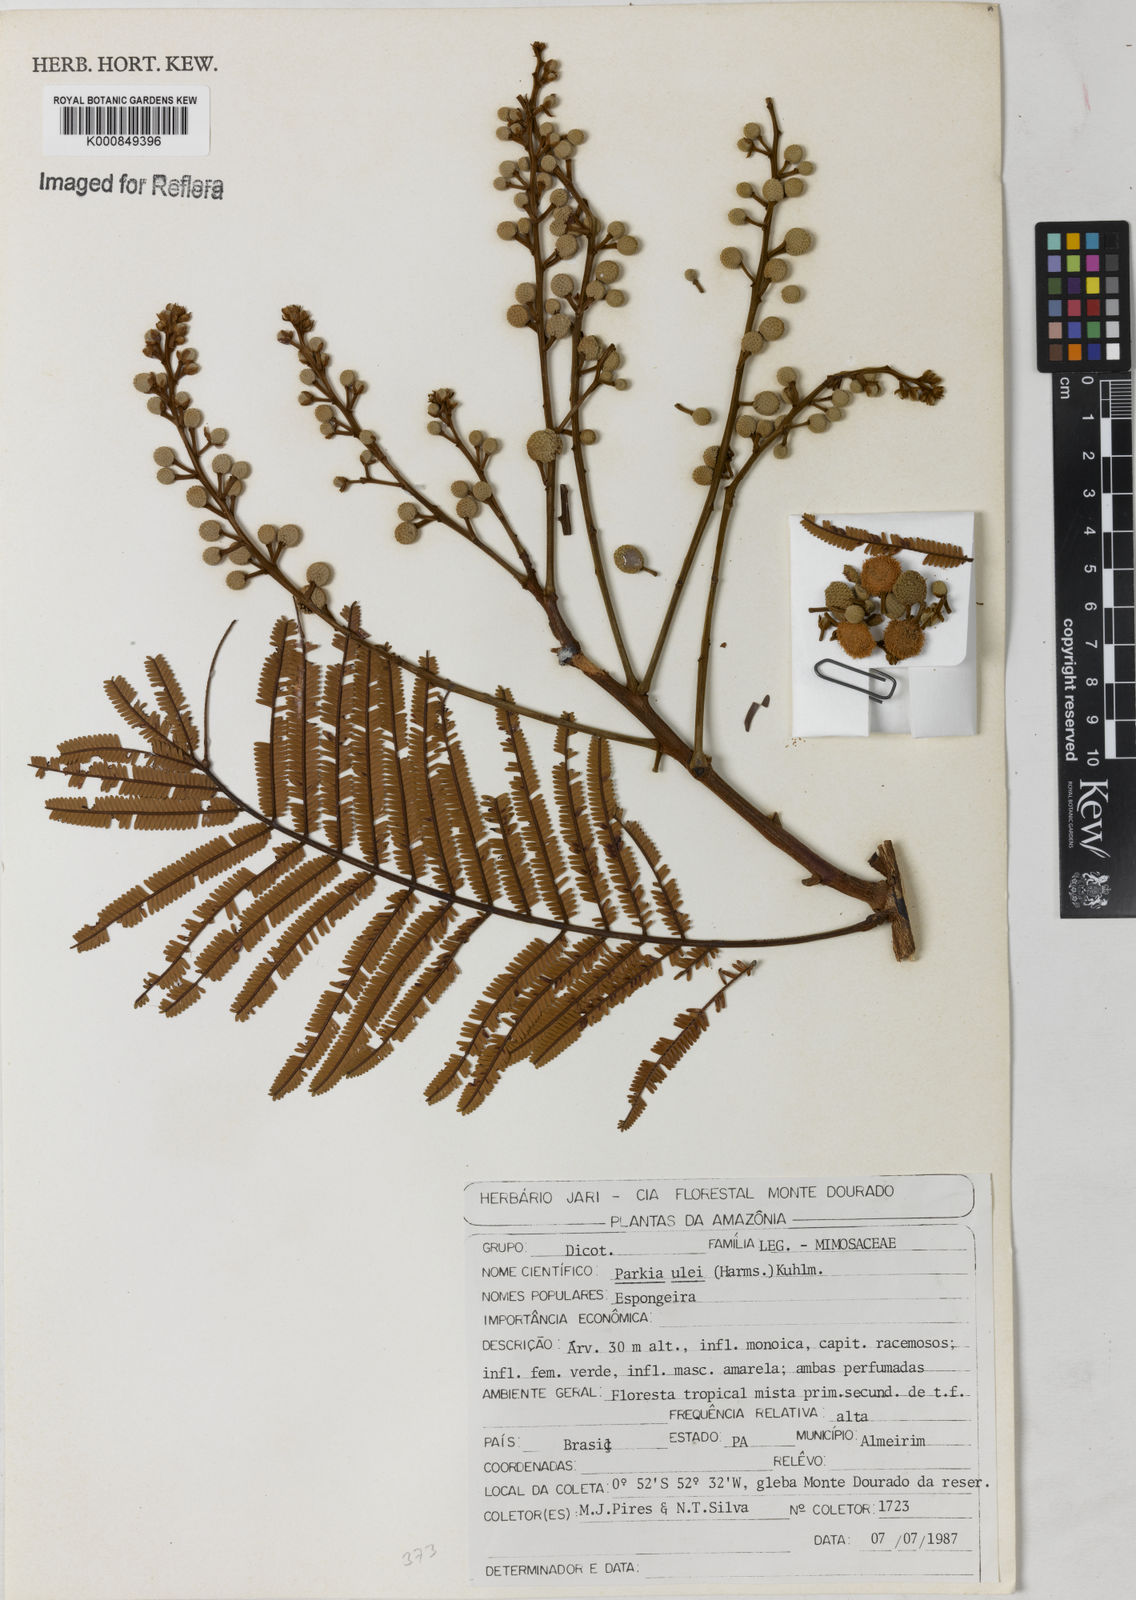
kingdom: Plantae
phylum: Tracheophyta
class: Magnoliopsida
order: Fabales
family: Fabaceae
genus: Parkia
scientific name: Parkia ulei
